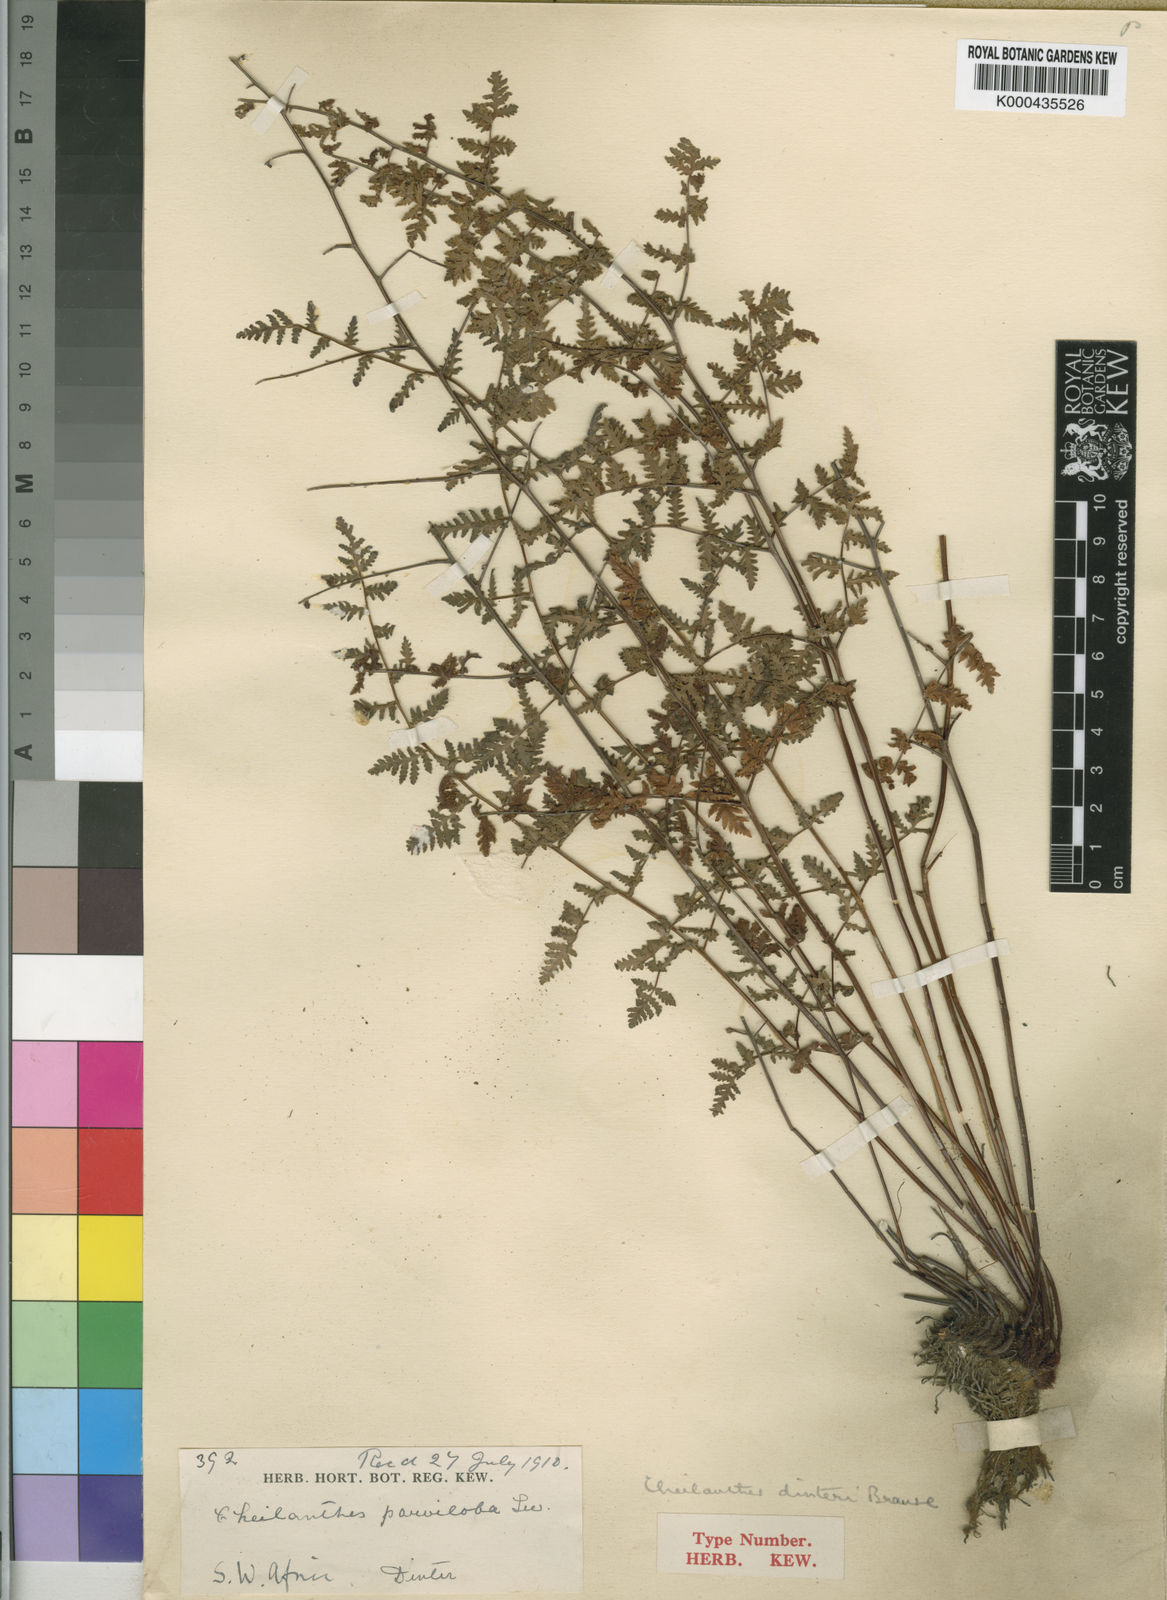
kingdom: Plantae
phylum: Tracheophyta
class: Polypodiopsida
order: Polypodiales
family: Pteridaceae
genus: Cheilanthes
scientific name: Cheilanthes dinteri
